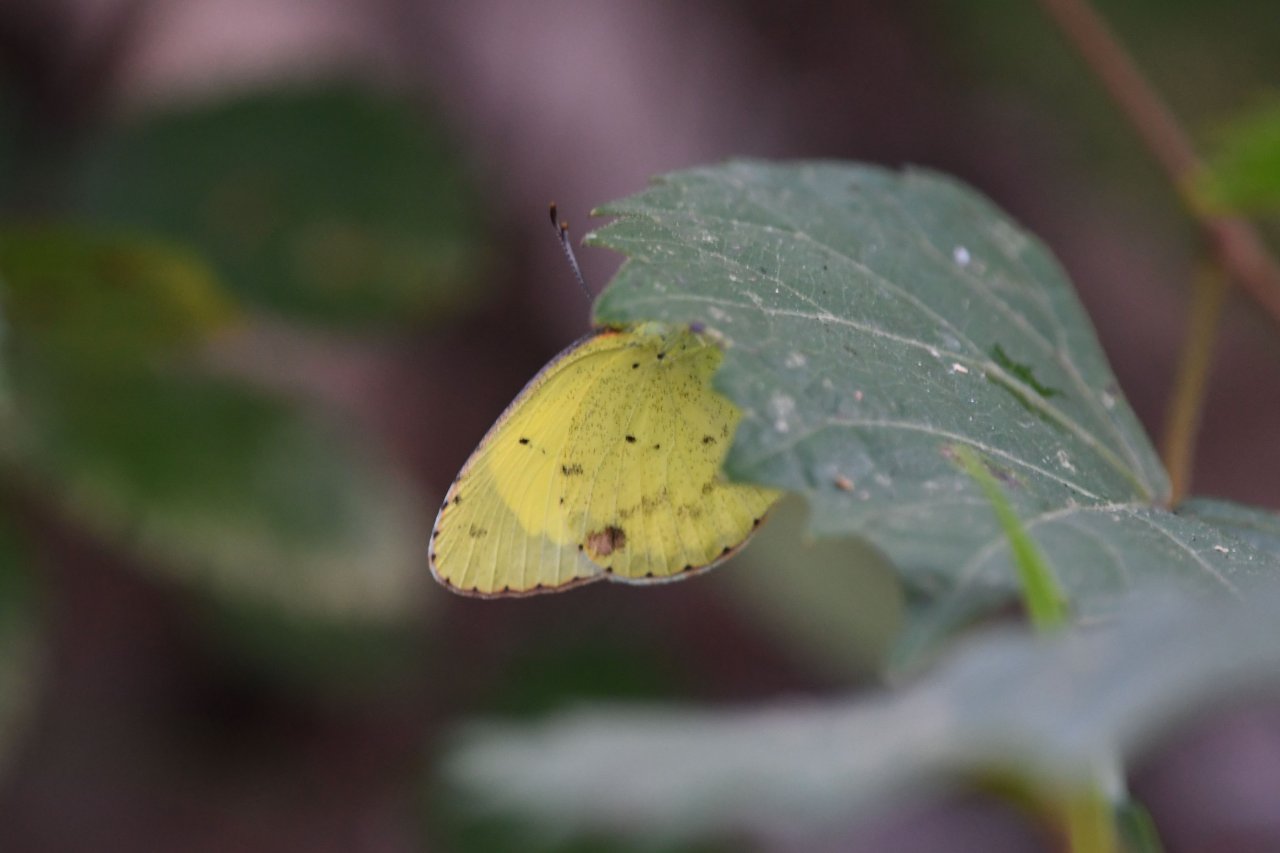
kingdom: Animalia
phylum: Arthropoda
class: Insecta
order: Lepidoptera
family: Pieridae
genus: Pyrisitia
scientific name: Pyrisitia lisa
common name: Little Yellow
